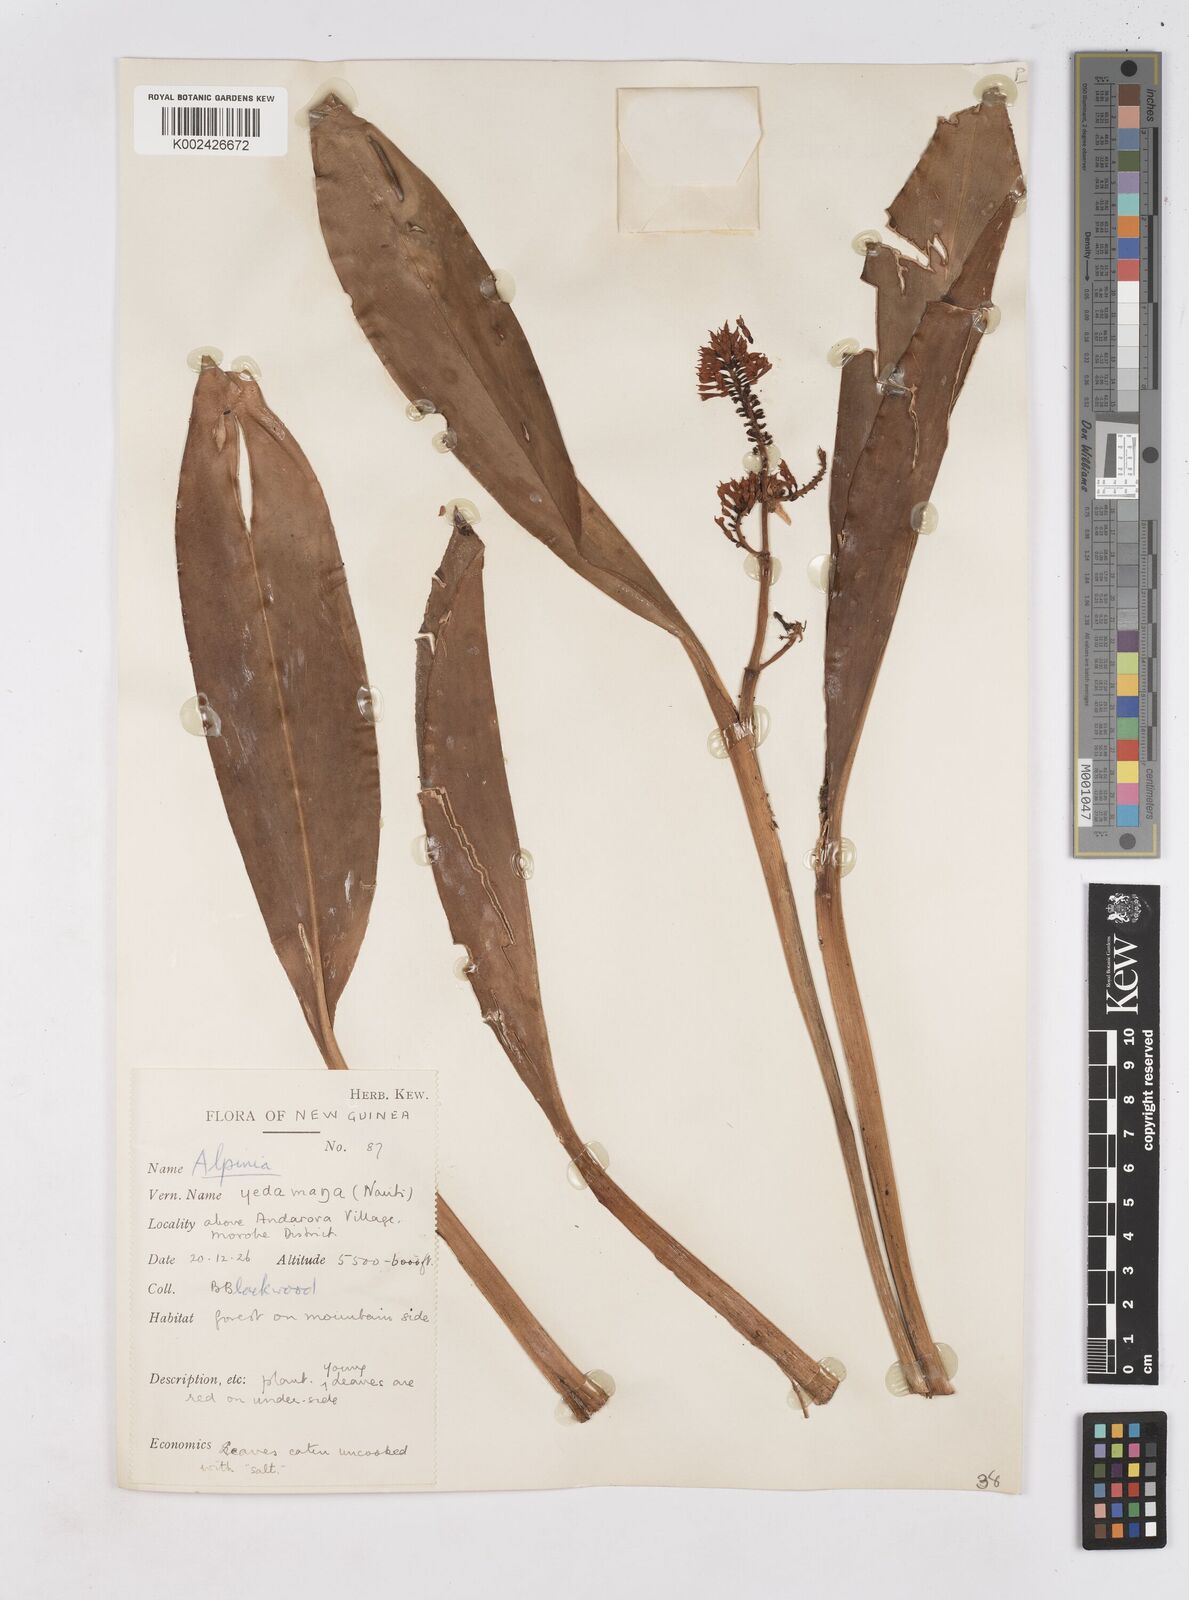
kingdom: Plantae
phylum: Tracheophyta
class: Liliopsida
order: Zingiberales
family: Zingiberaceae
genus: Riedelia
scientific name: Riedelia
